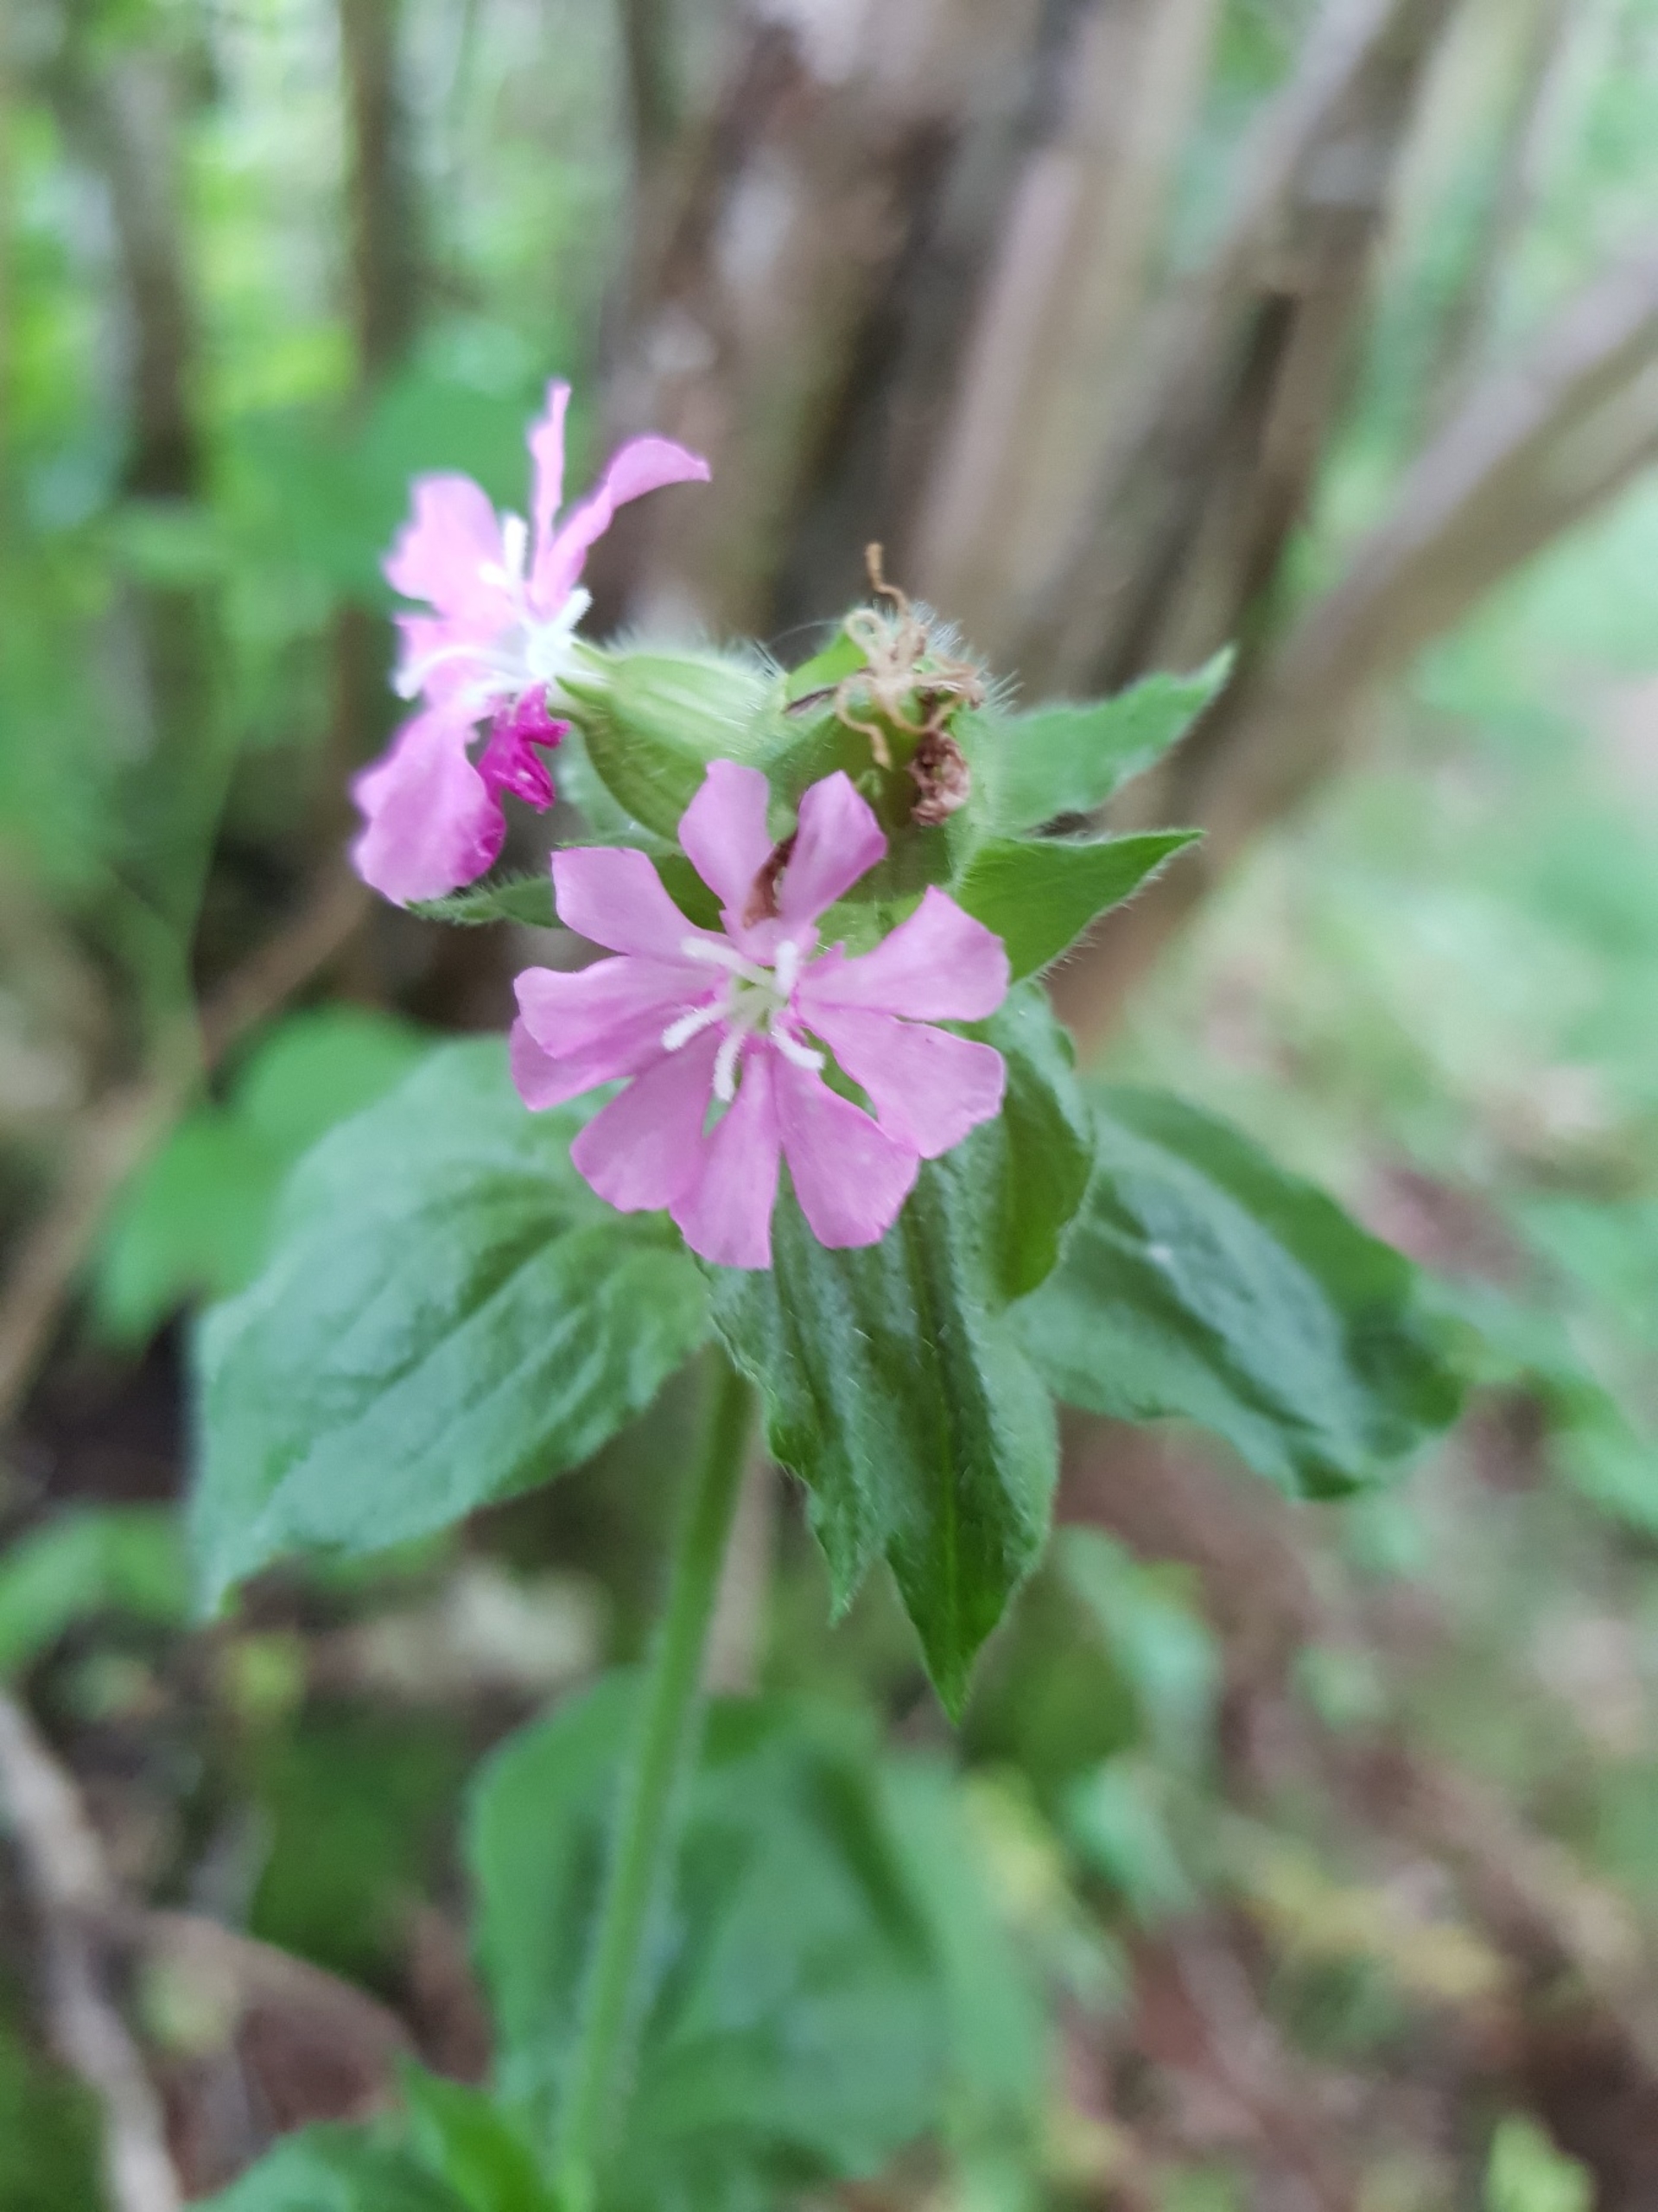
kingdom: Plantae
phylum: Tracheophyta
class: Magnoliopsida
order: Caryophyllales
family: Caryophyllaceae
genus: Silene
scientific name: Silene dioica
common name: Dagpragtstjerne
